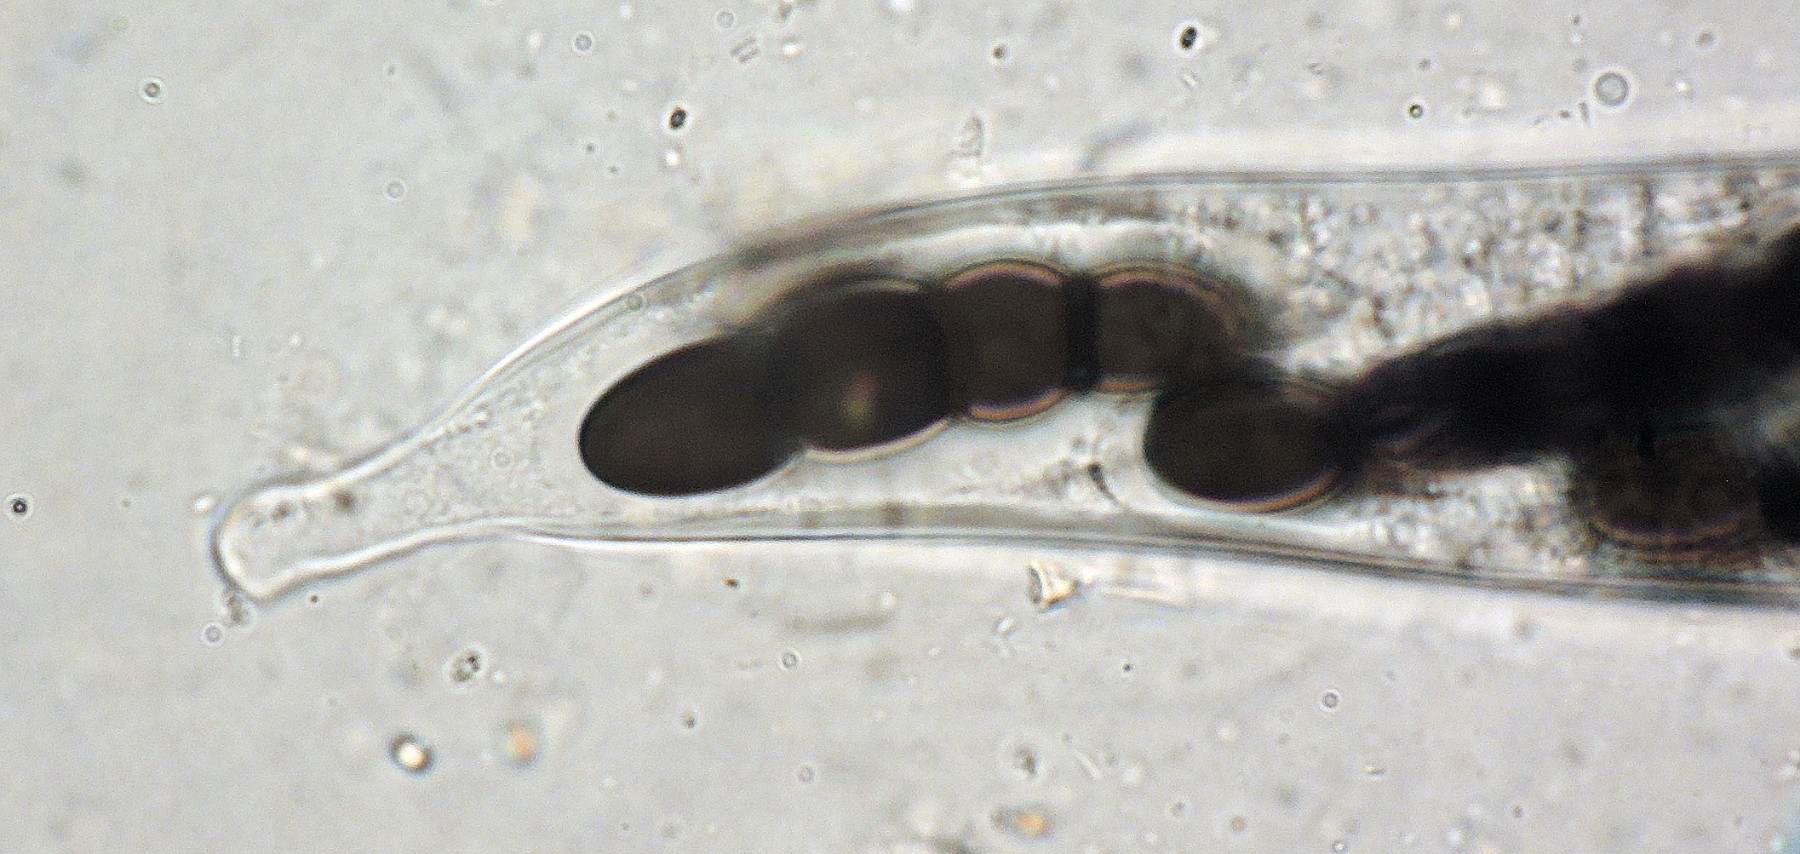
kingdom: Fungi
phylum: Ascomycota
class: Dothideomycetes
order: Pleosporales
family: Sporormiaceae
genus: Sporormiella
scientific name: Sporormiella grandispora
